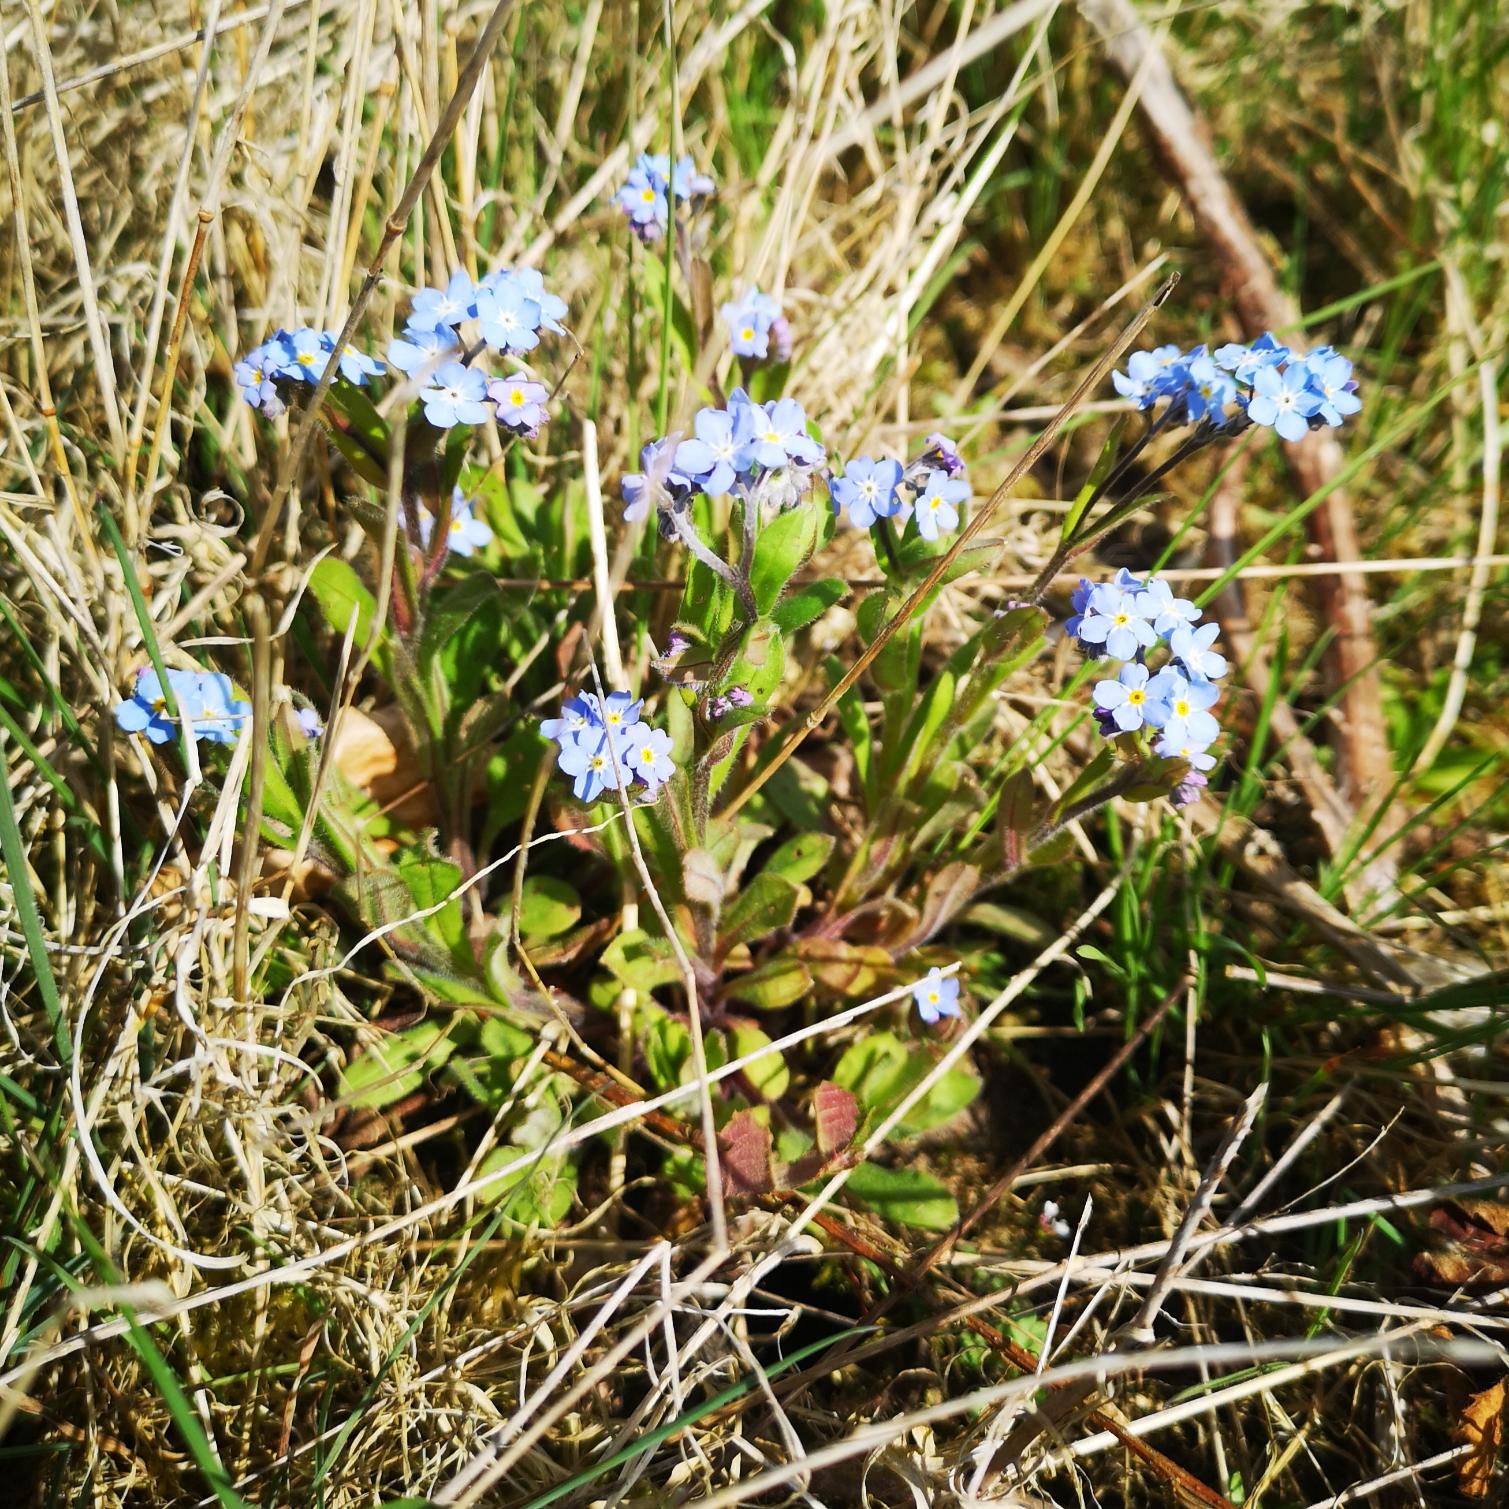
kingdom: Plantae
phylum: Tracheophyta
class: Magnoliopsida
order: Boraginales
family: Boraginaceae
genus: Myosotis
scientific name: Myosotis sylvatica
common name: Skov-forglemmigej
